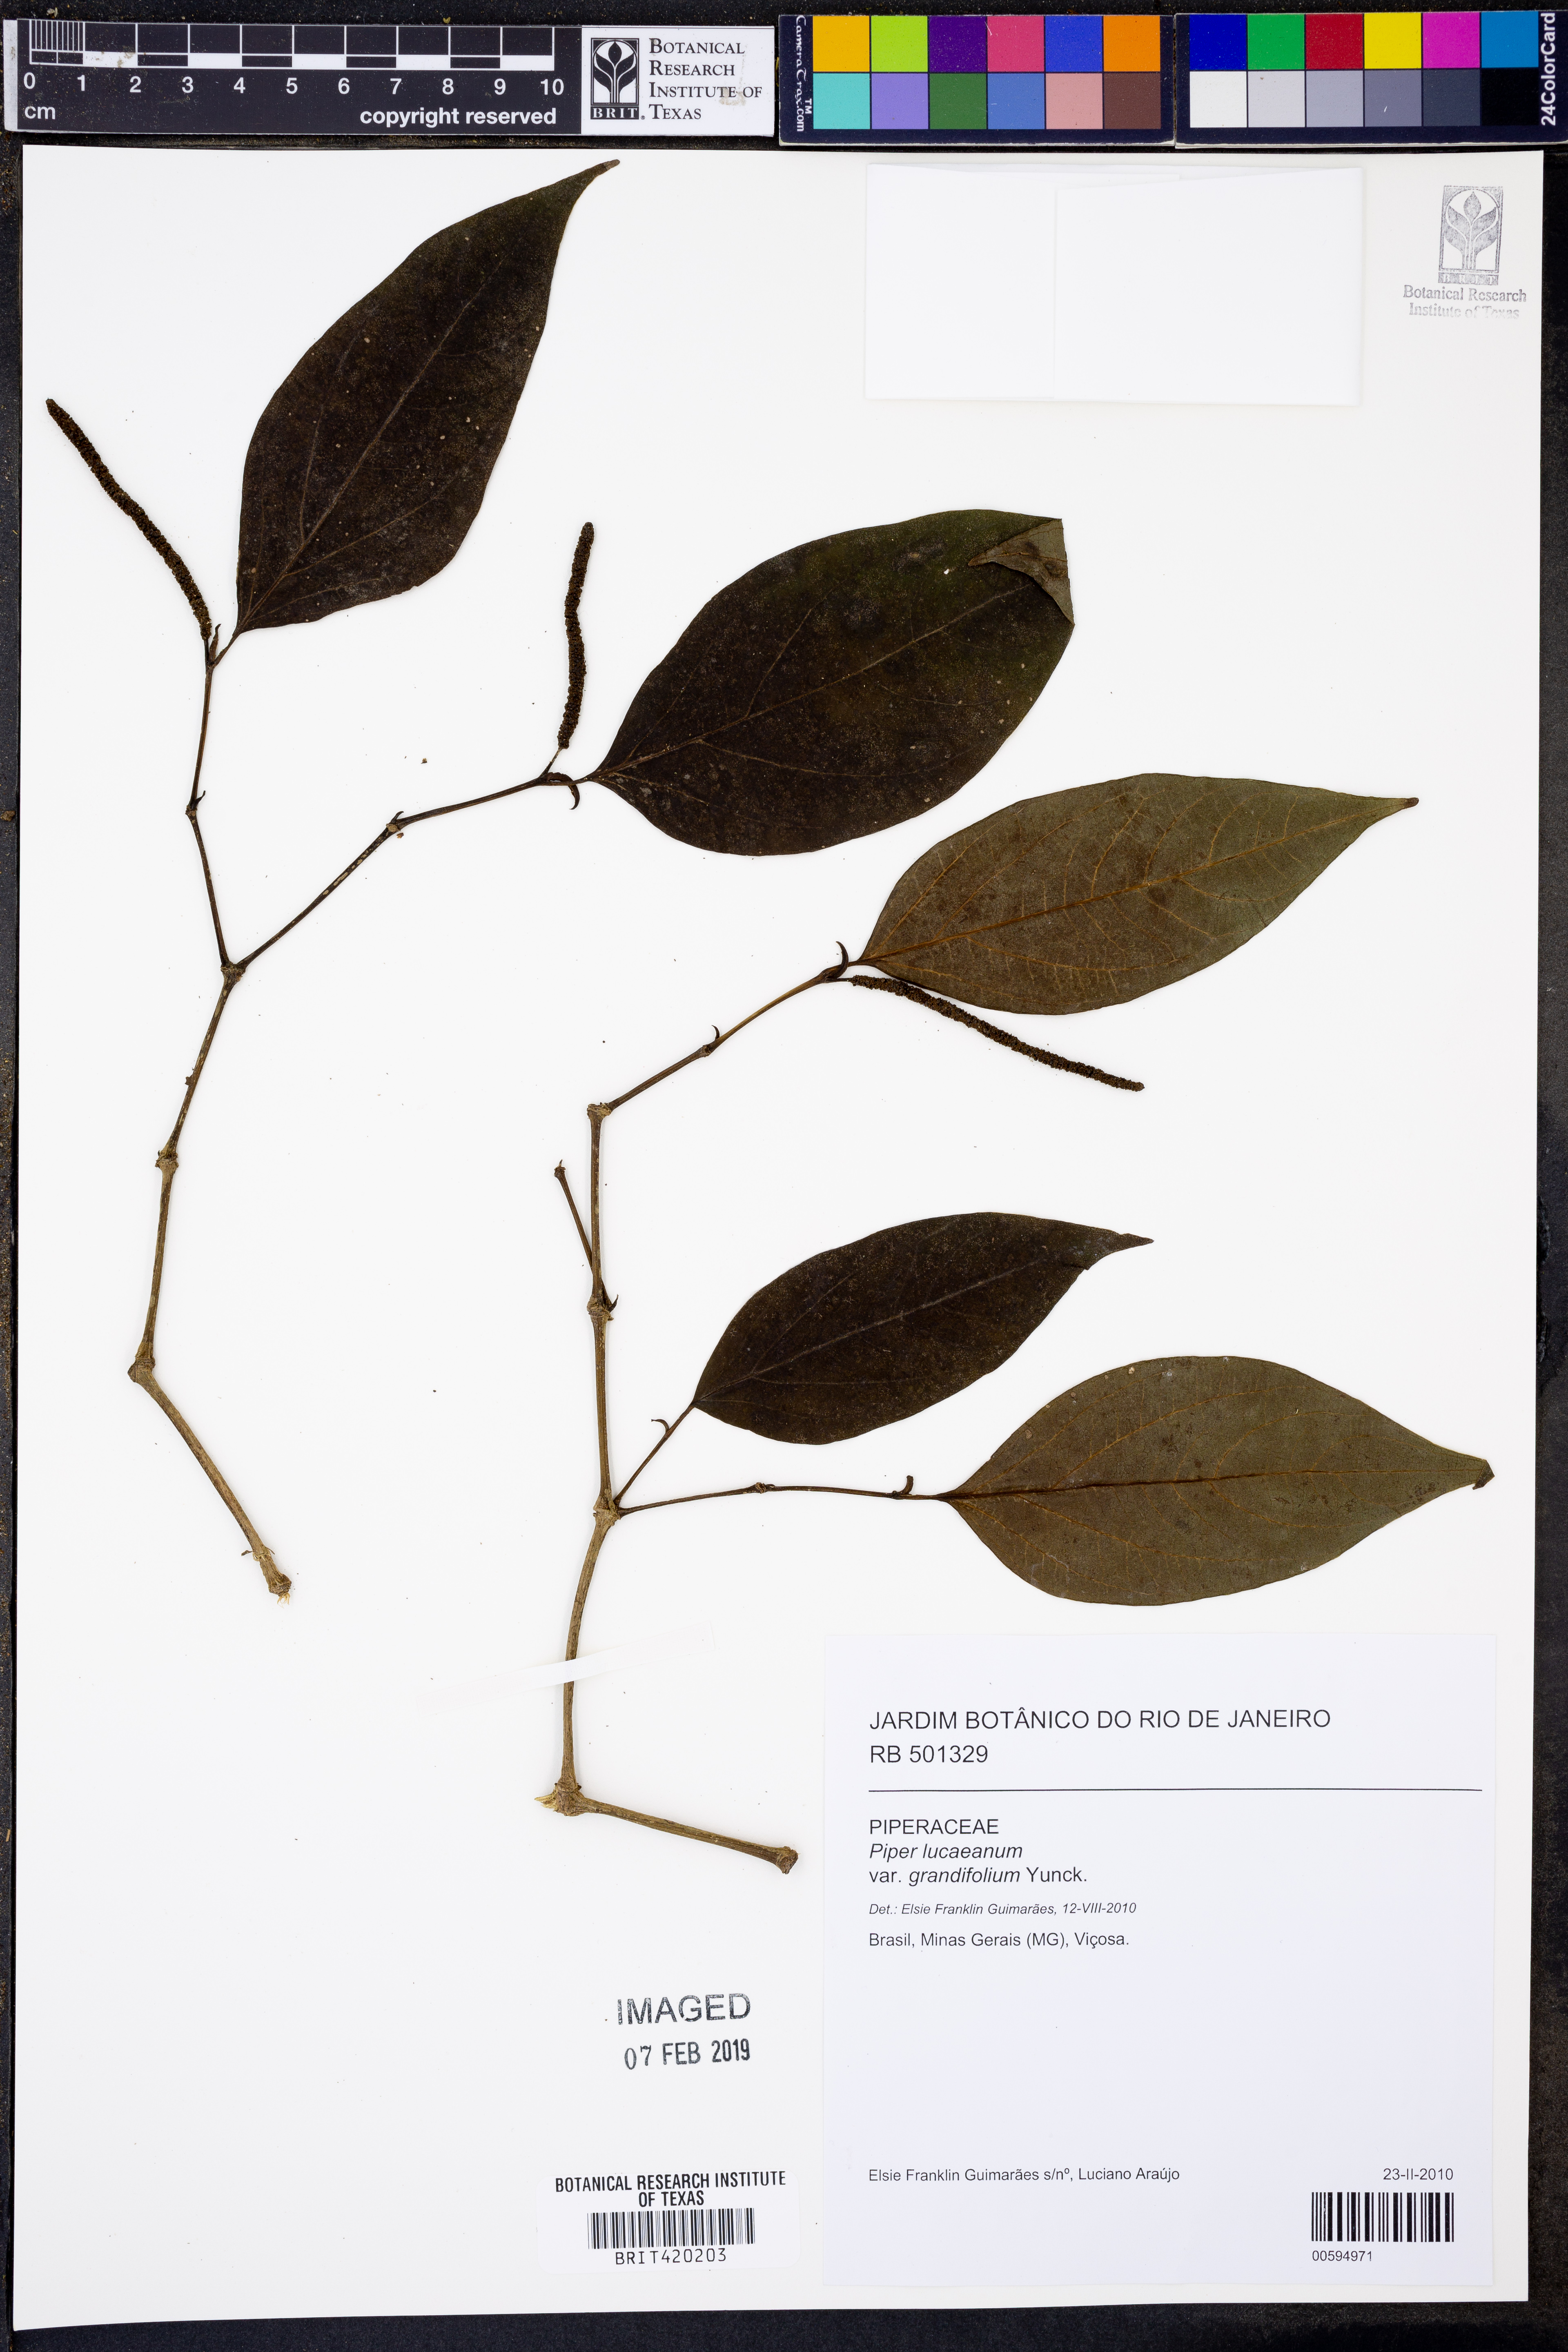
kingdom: Plantae
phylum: Tracheophyta
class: Magnoliopsida
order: Piperales
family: Piperaceae
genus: Piper
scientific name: Piper lepturum
